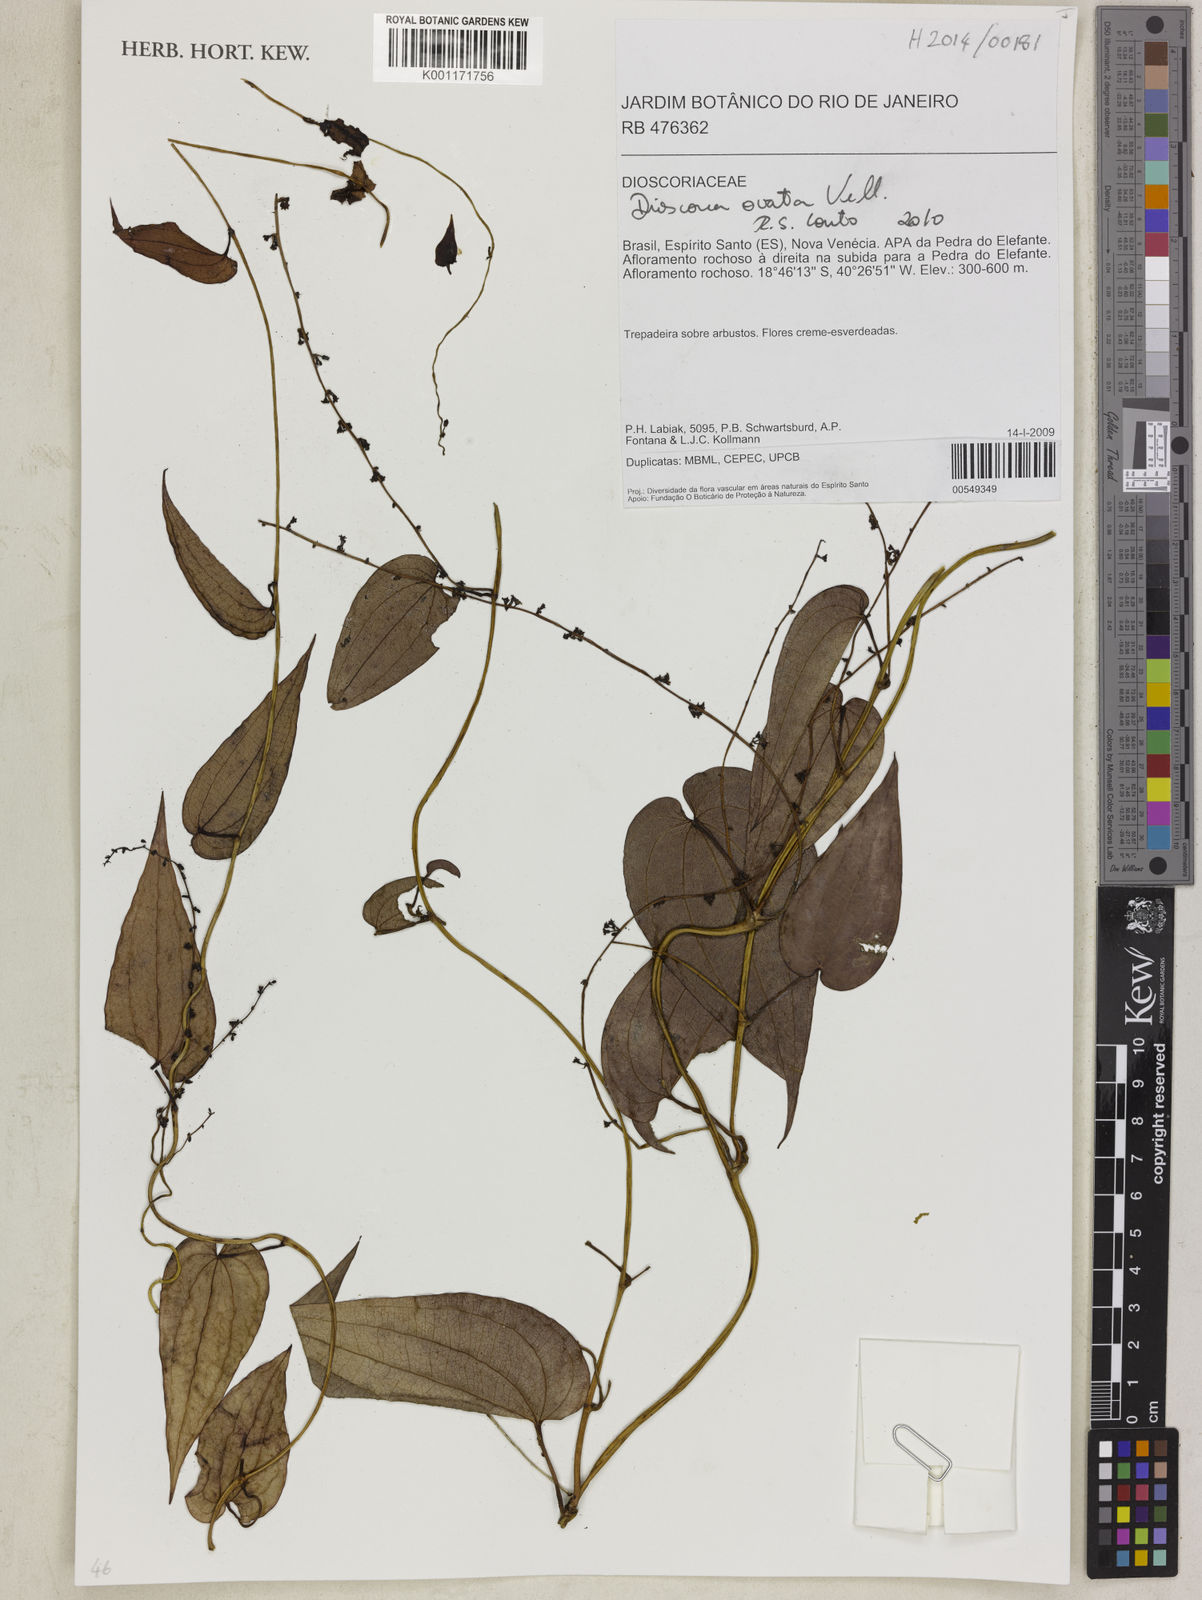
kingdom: Plantae
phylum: Tracheophyta
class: Liliopsida
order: Dioscoreales
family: Dioscoreaceae
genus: Dioscorea
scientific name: Dioscorea ovata
